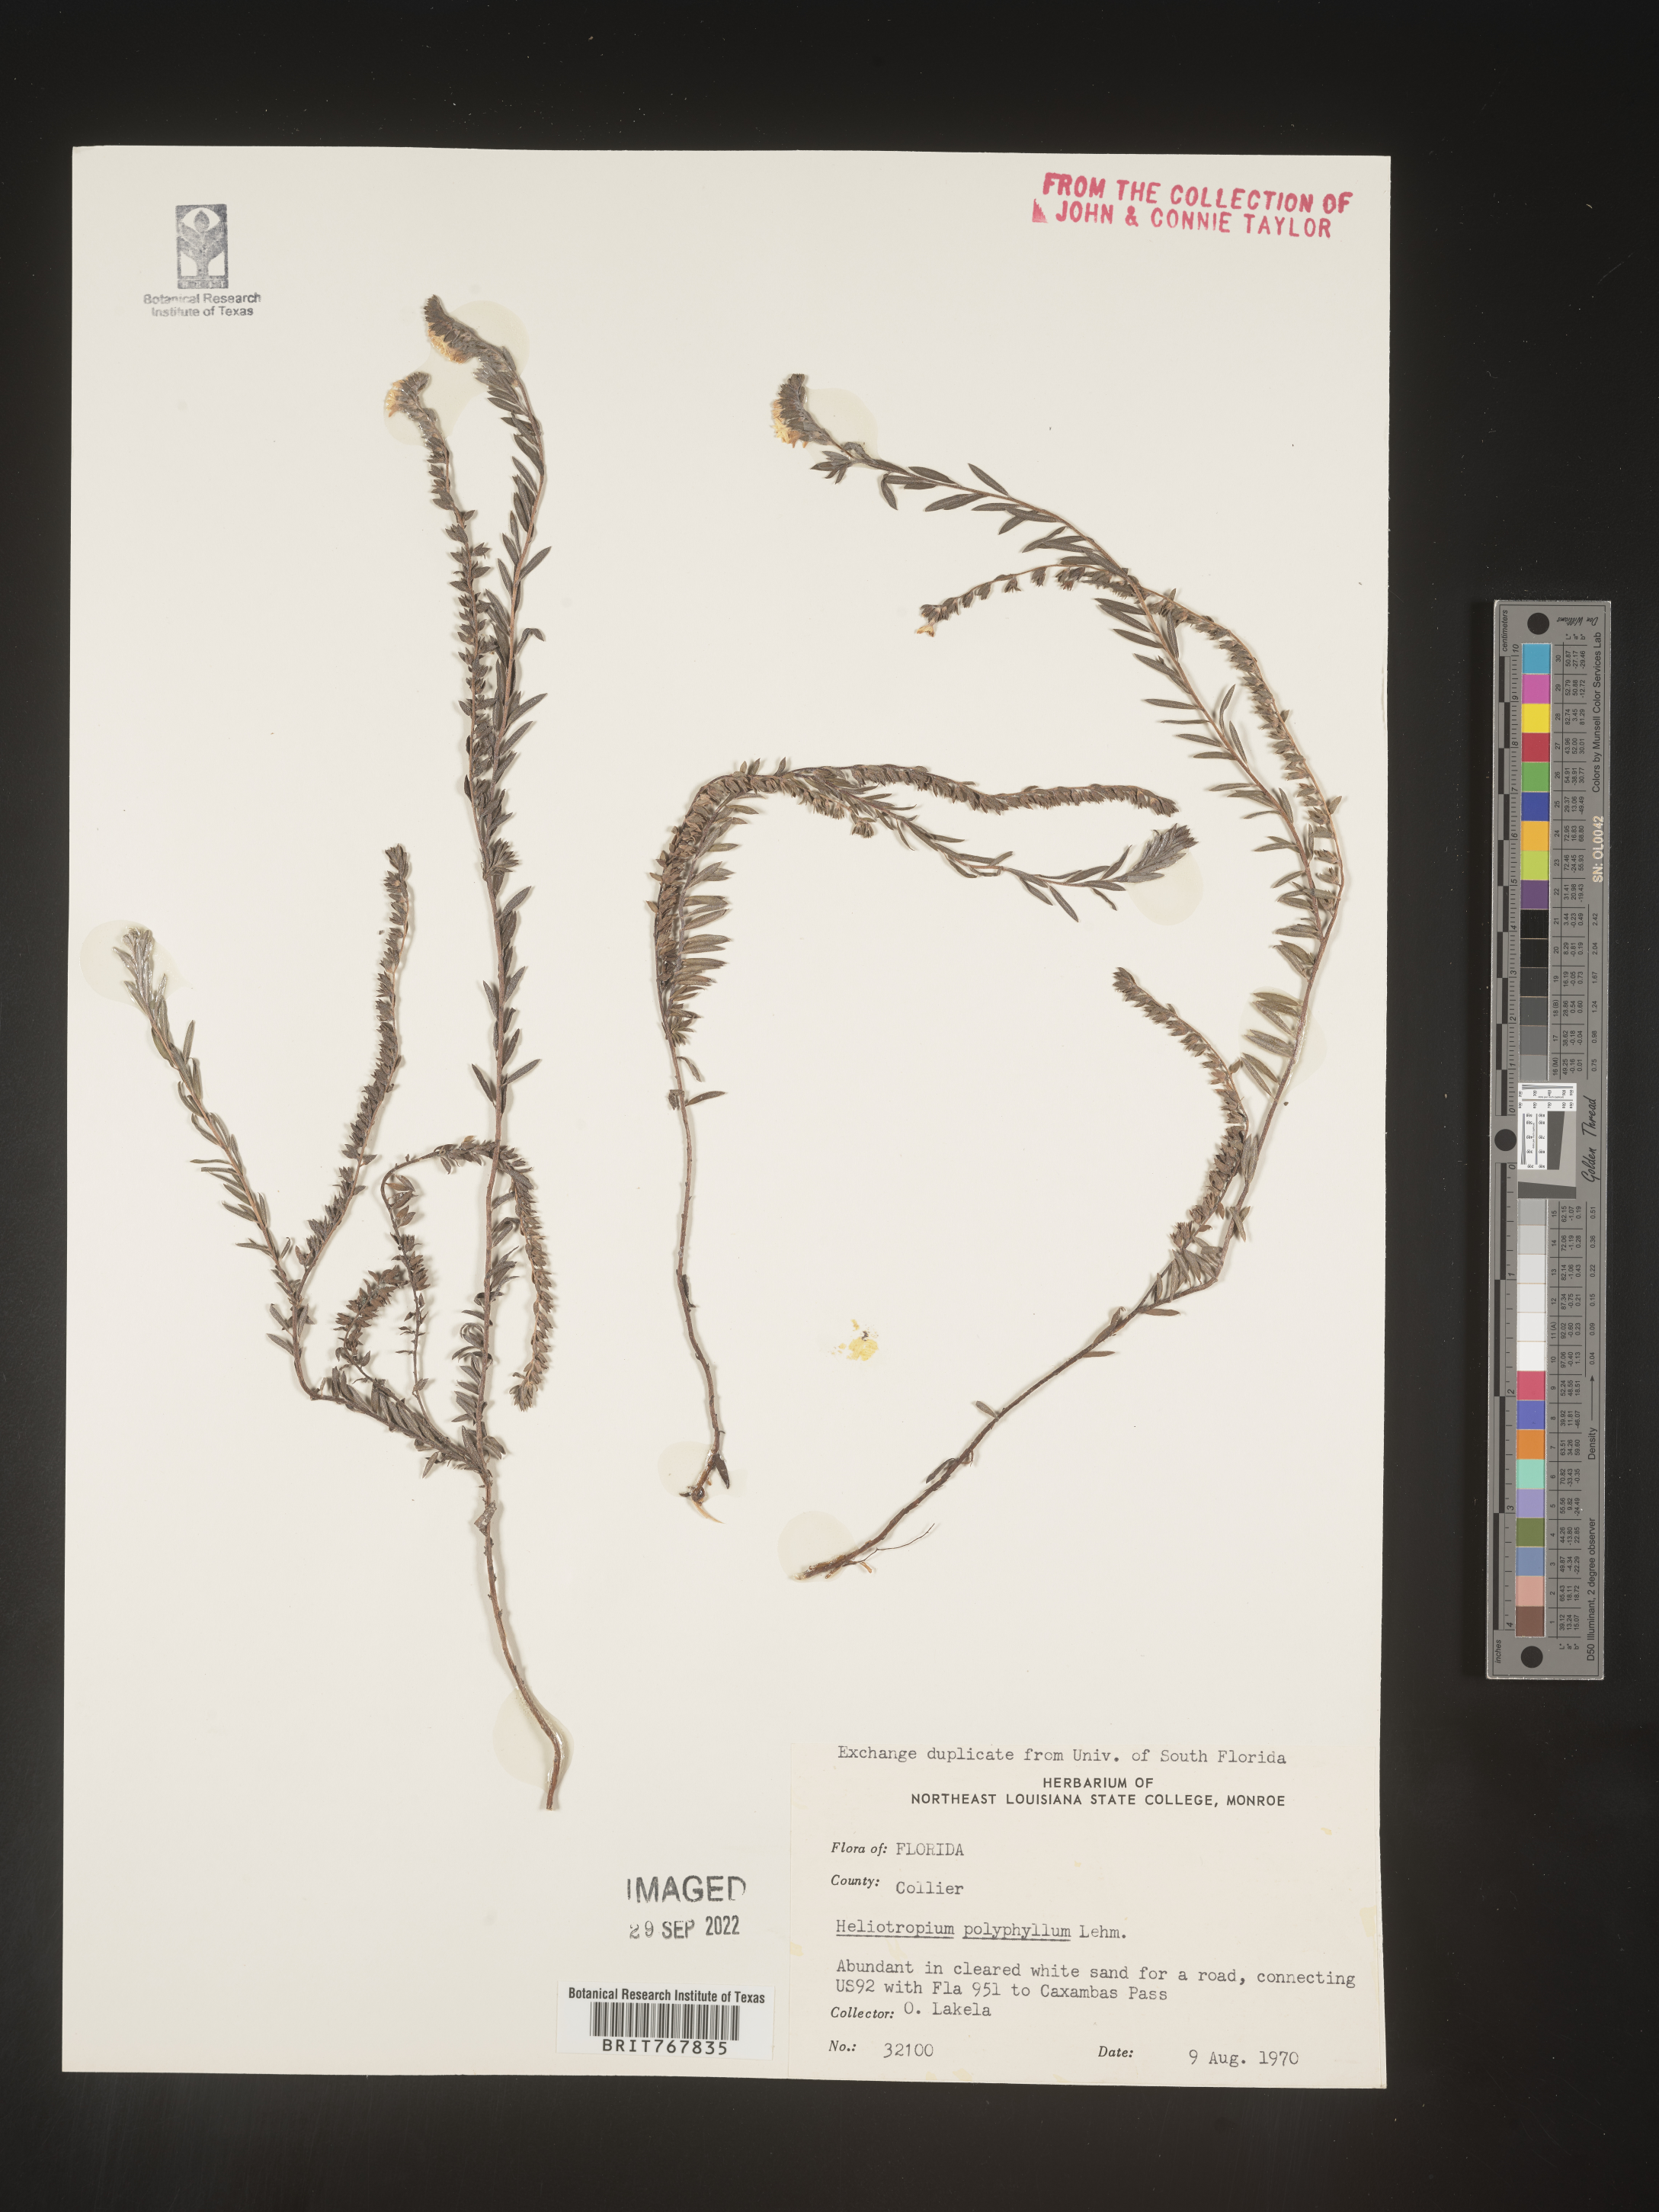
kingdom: Plantae
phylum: Tracheophyta
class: Magnoliopsida
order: Boraginales
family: Heliotropiaceae
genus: Heliotropium
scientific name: Heliotropium
